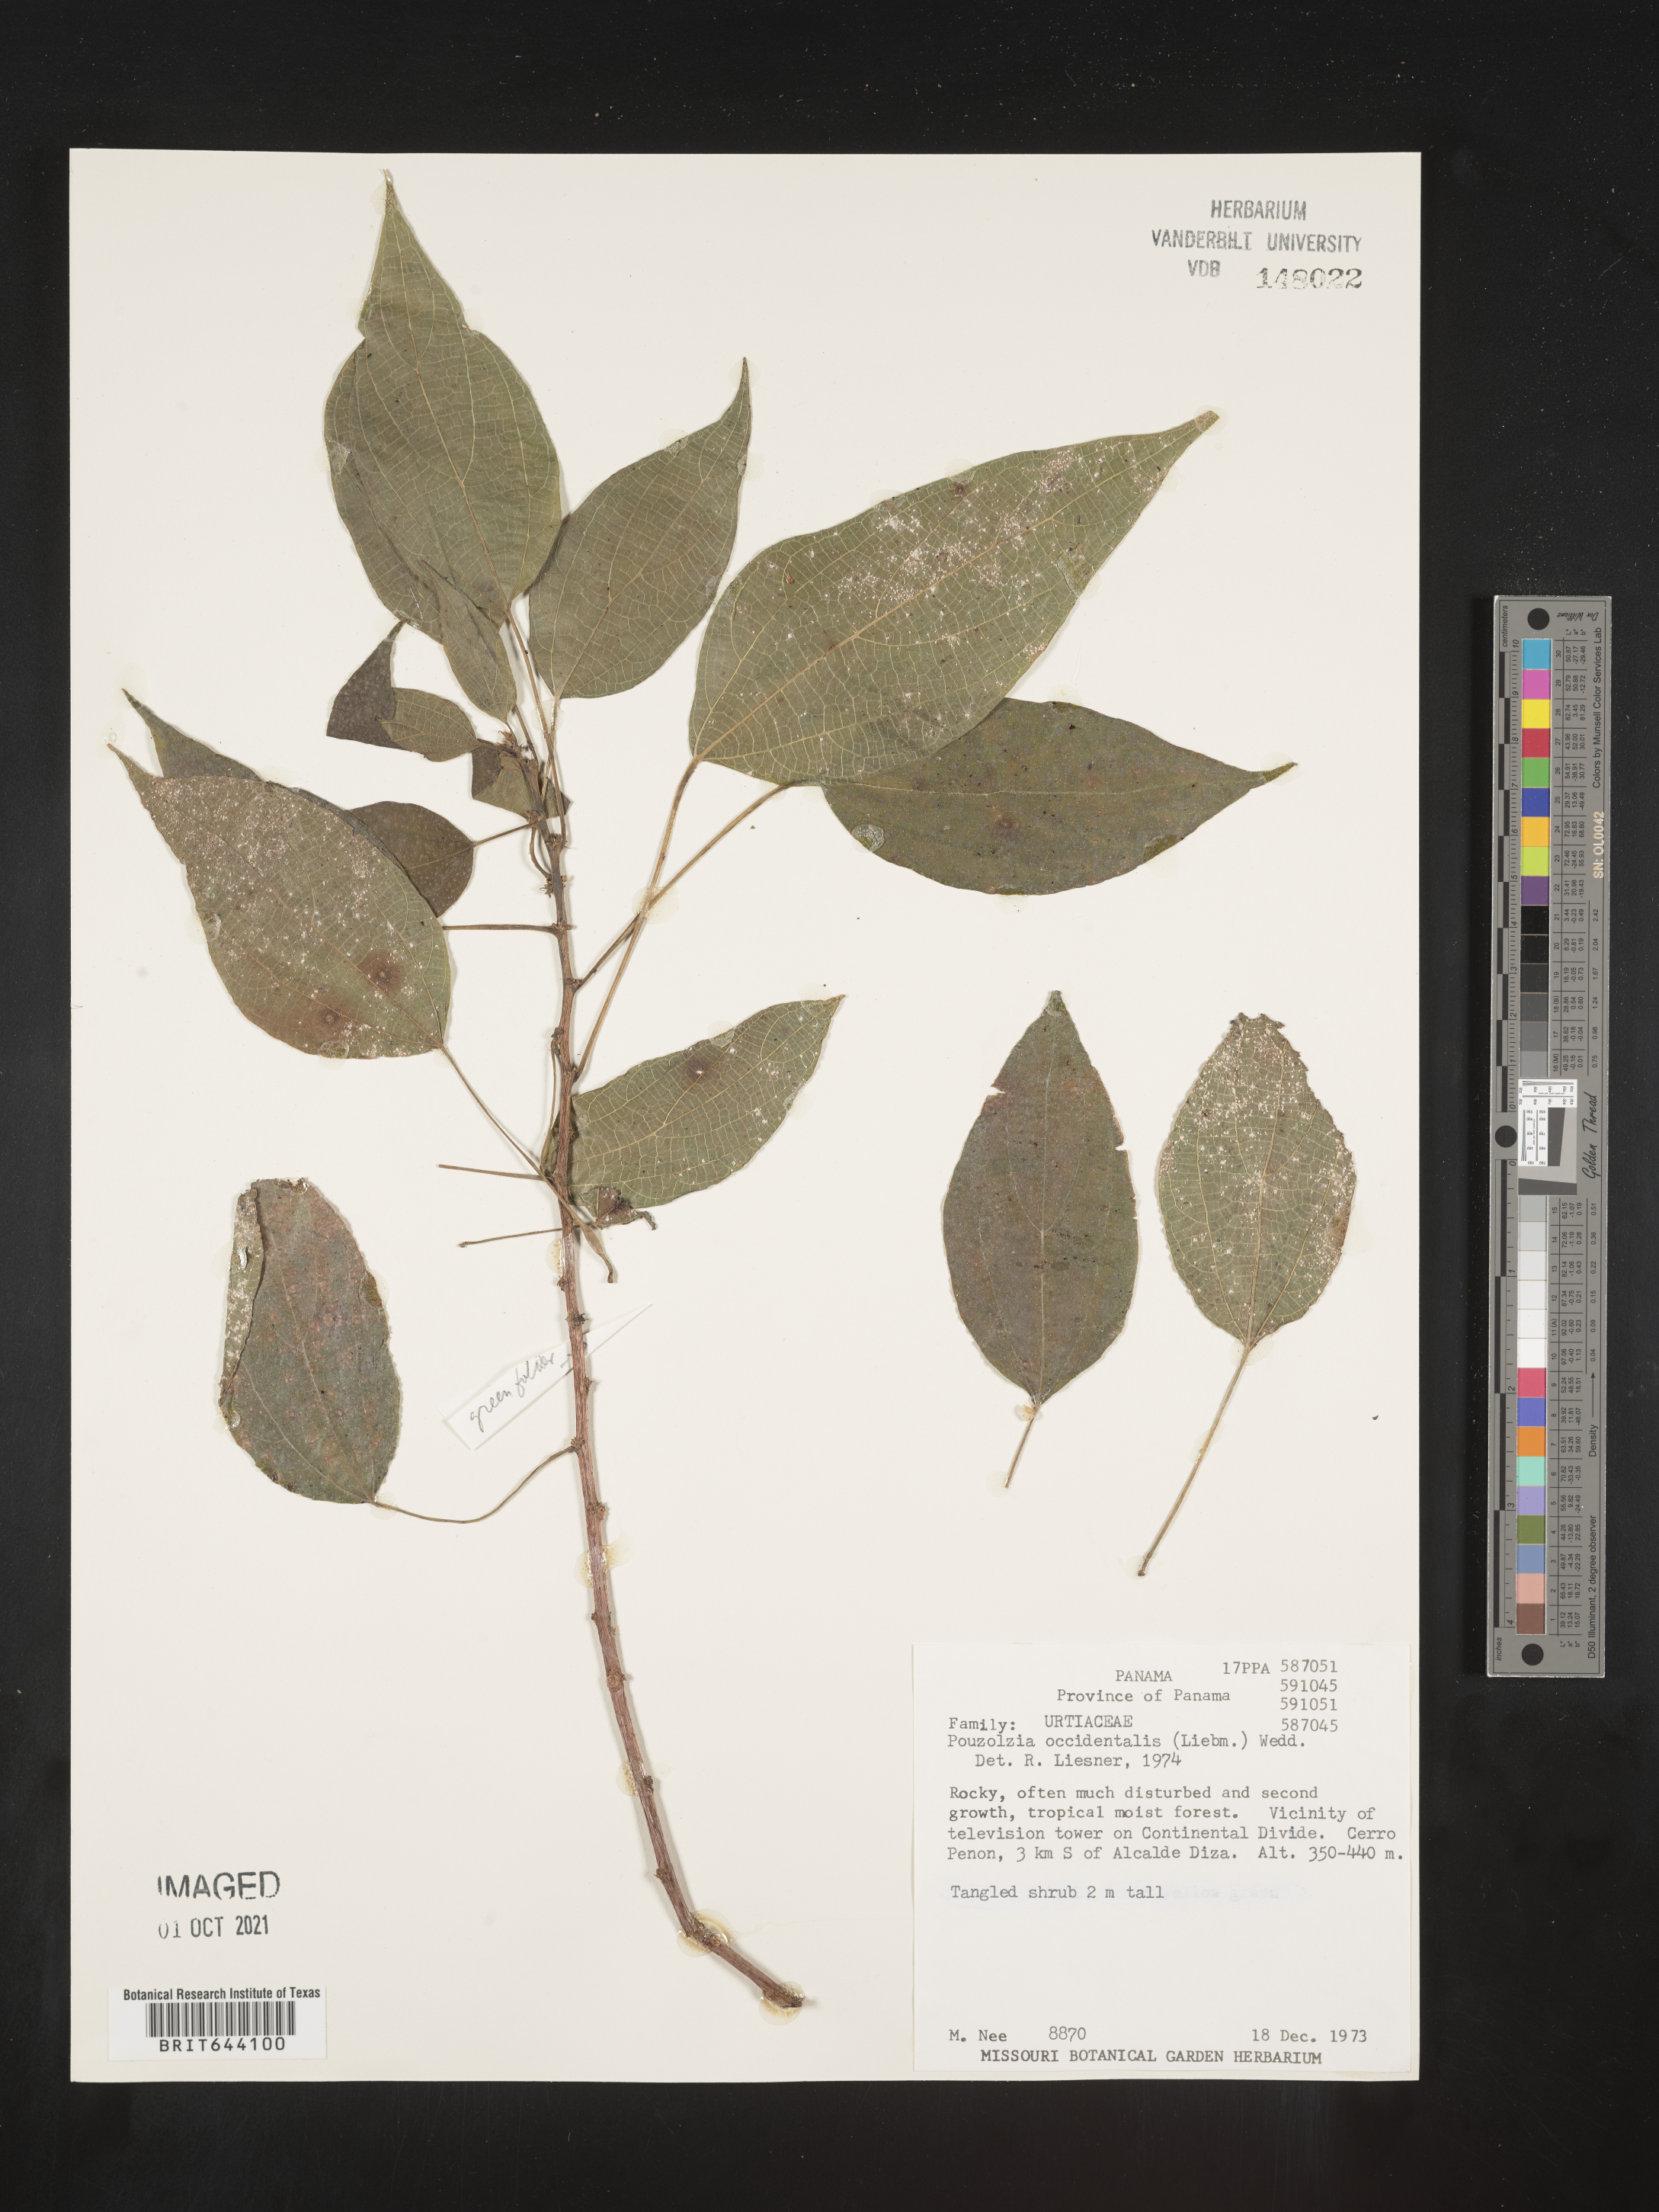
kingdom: Plantae
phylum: Tracheophyta
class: Magnoliopsida
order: Rosales
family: Urticaceae
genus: Pouzolzia
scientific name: Pouzolzia
